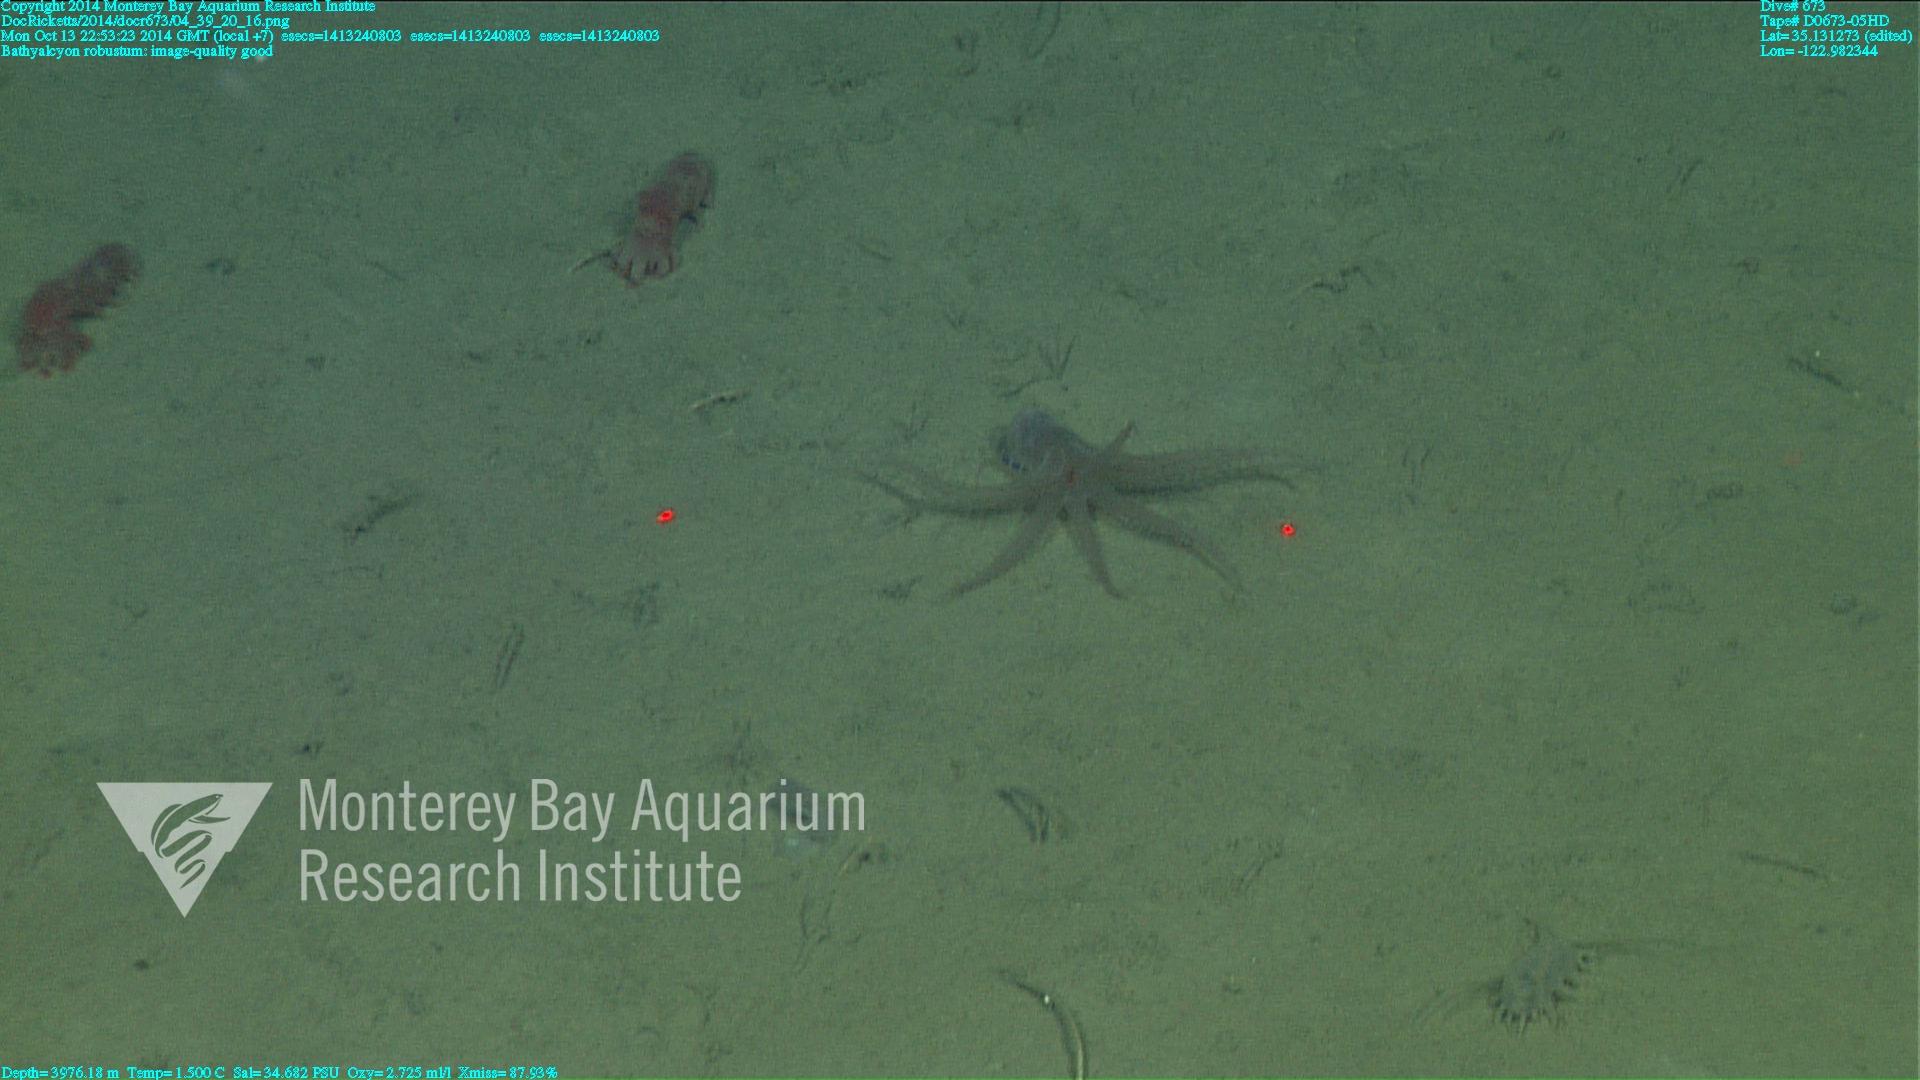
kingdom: Animalia
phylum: Cnidaria
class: Anthozoa
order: Scleralcyonacea
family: Coralliidae
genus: Bathyalcyon
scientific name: Bathyalcyon robustum
